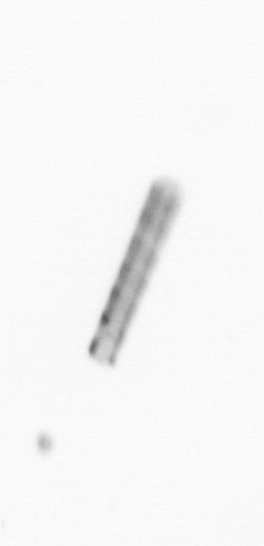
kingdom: Chromista
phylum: Ochrophyta
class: Bacillariophyceae
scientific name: Bacillariophyceae
